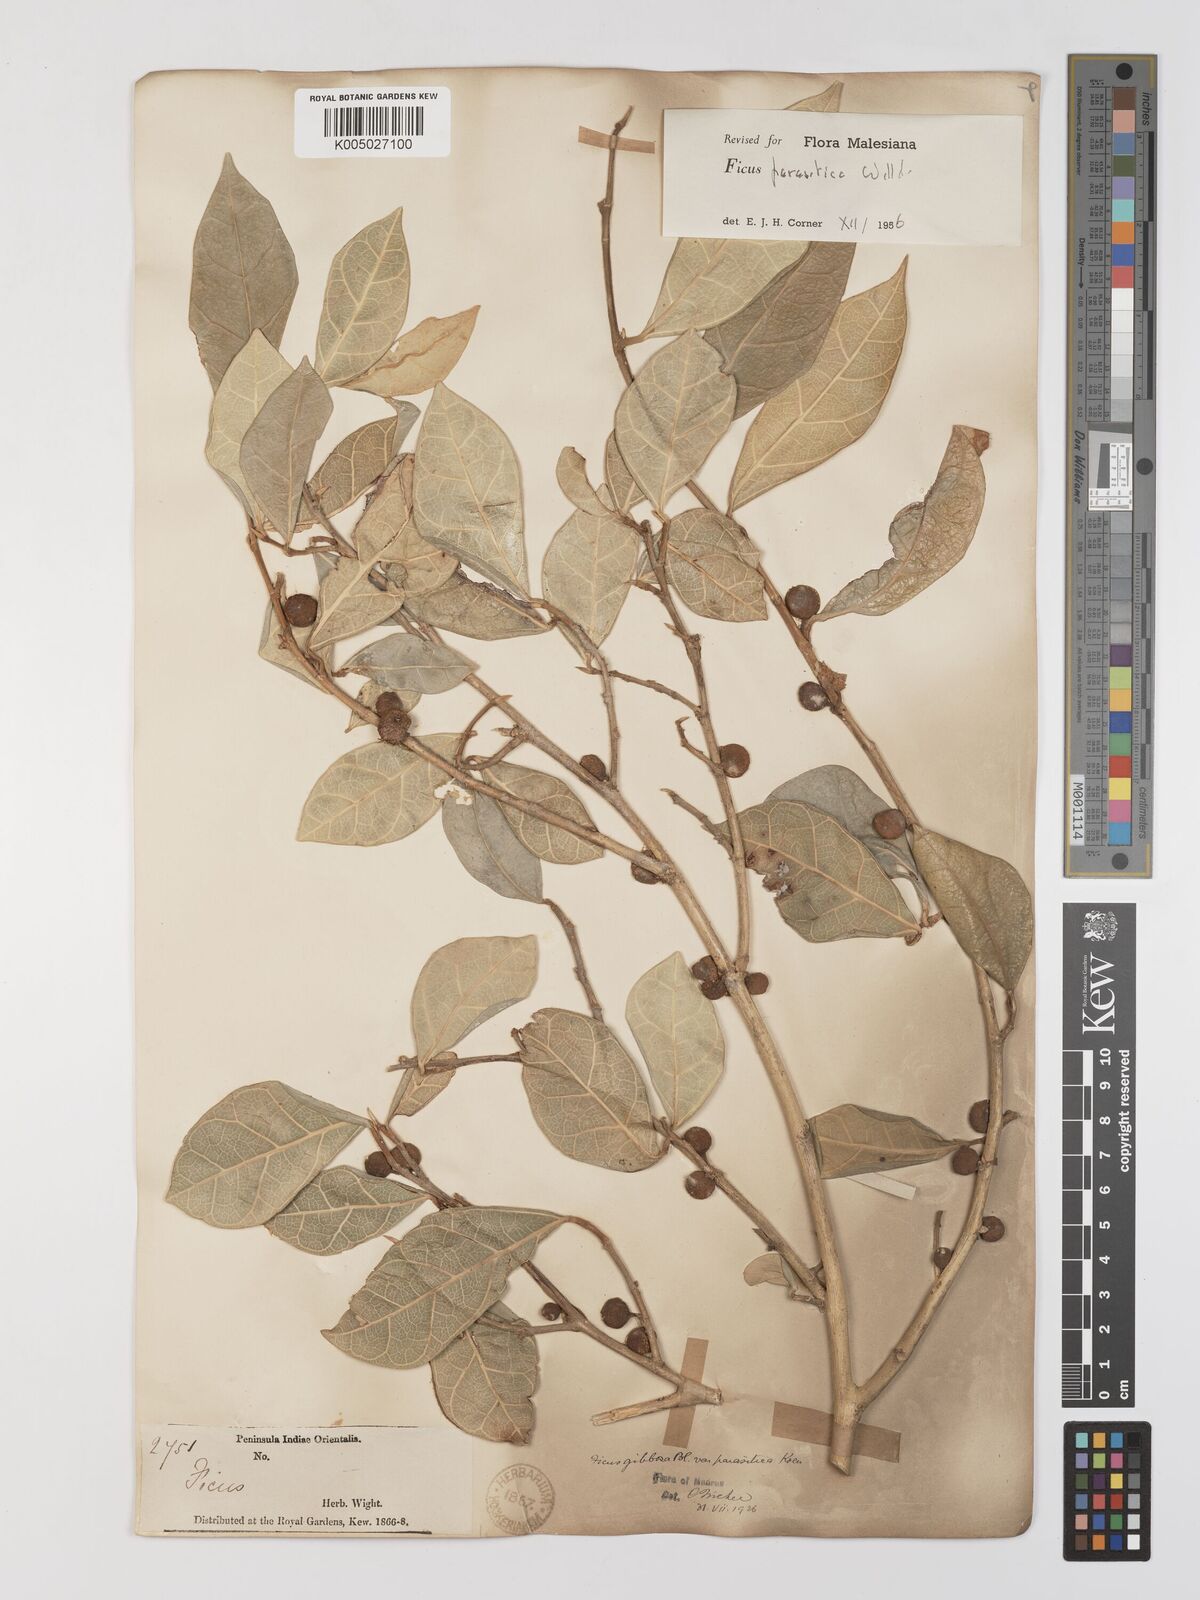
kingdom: Plantae
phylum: Tracheophyta
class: Magnoliopsida
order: Rosales
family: Moraceae
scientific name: Moraceae
